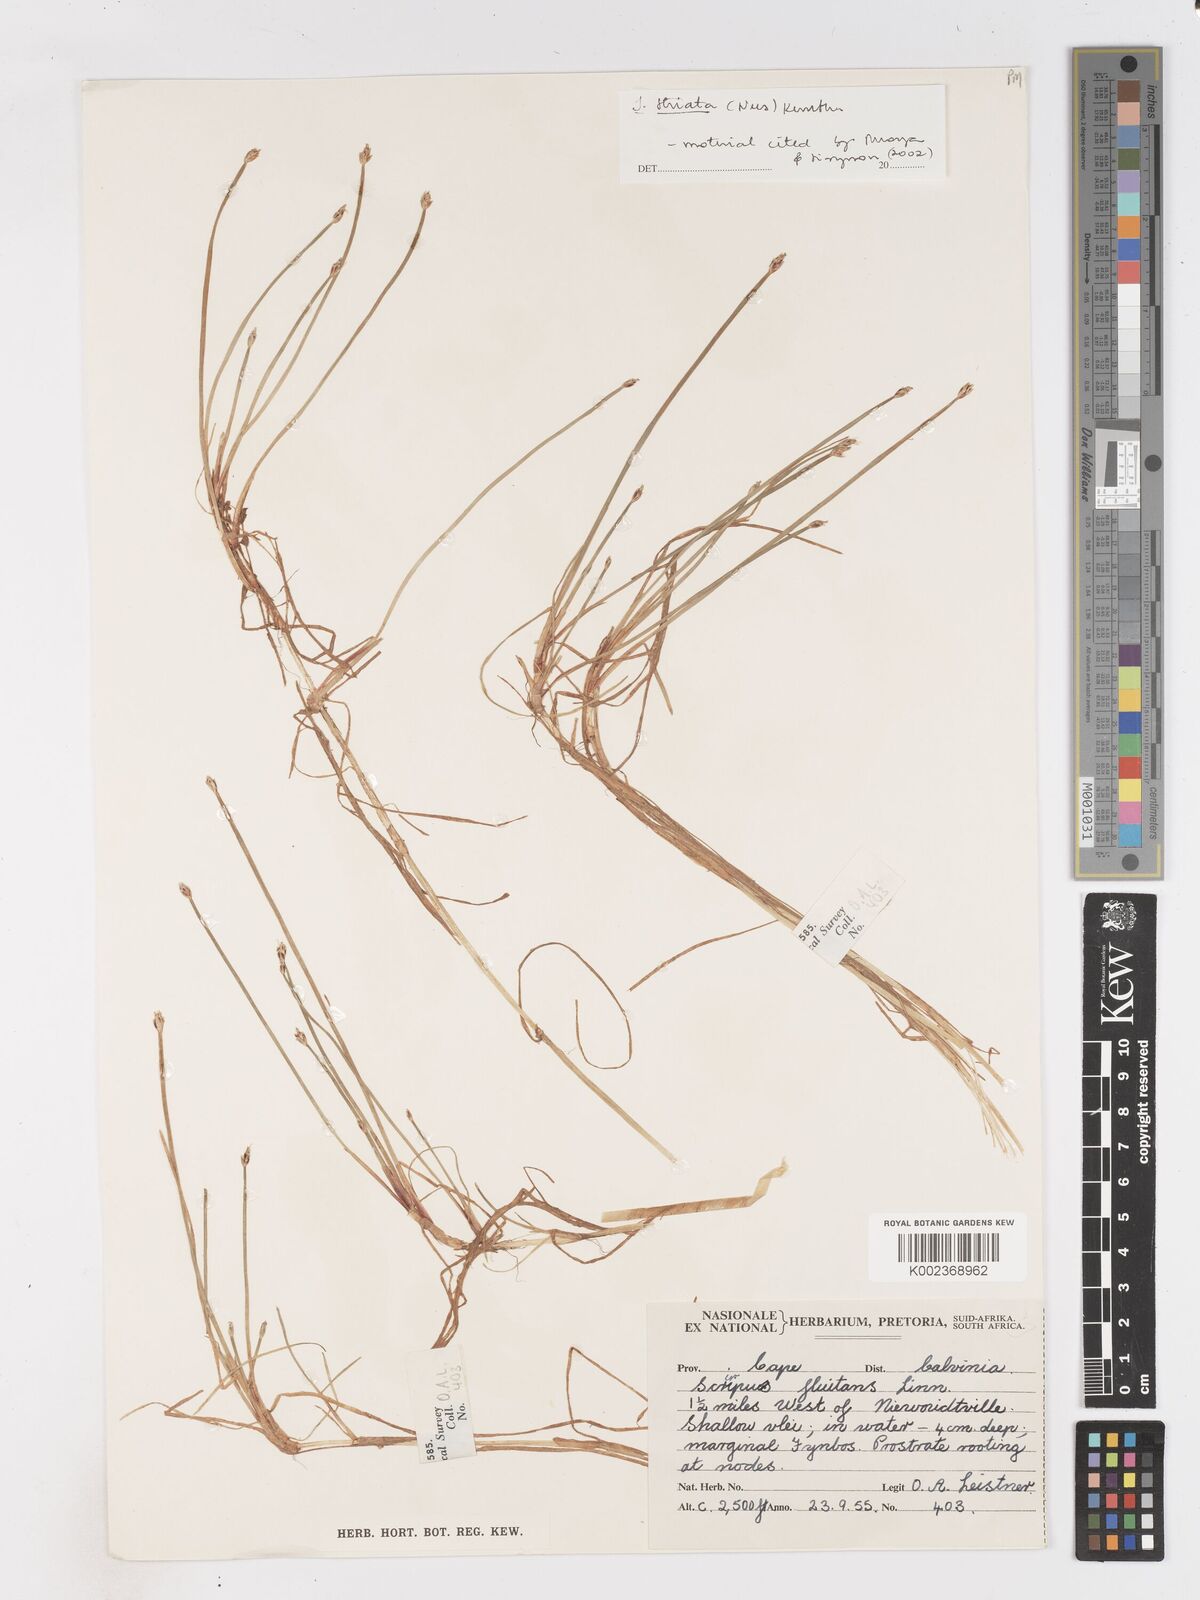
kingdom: Plantae
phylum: Tracheophyta
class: Liliopsida
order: Poales
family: Cyperaceae
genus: Isolepis
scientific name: Isolepis striata
